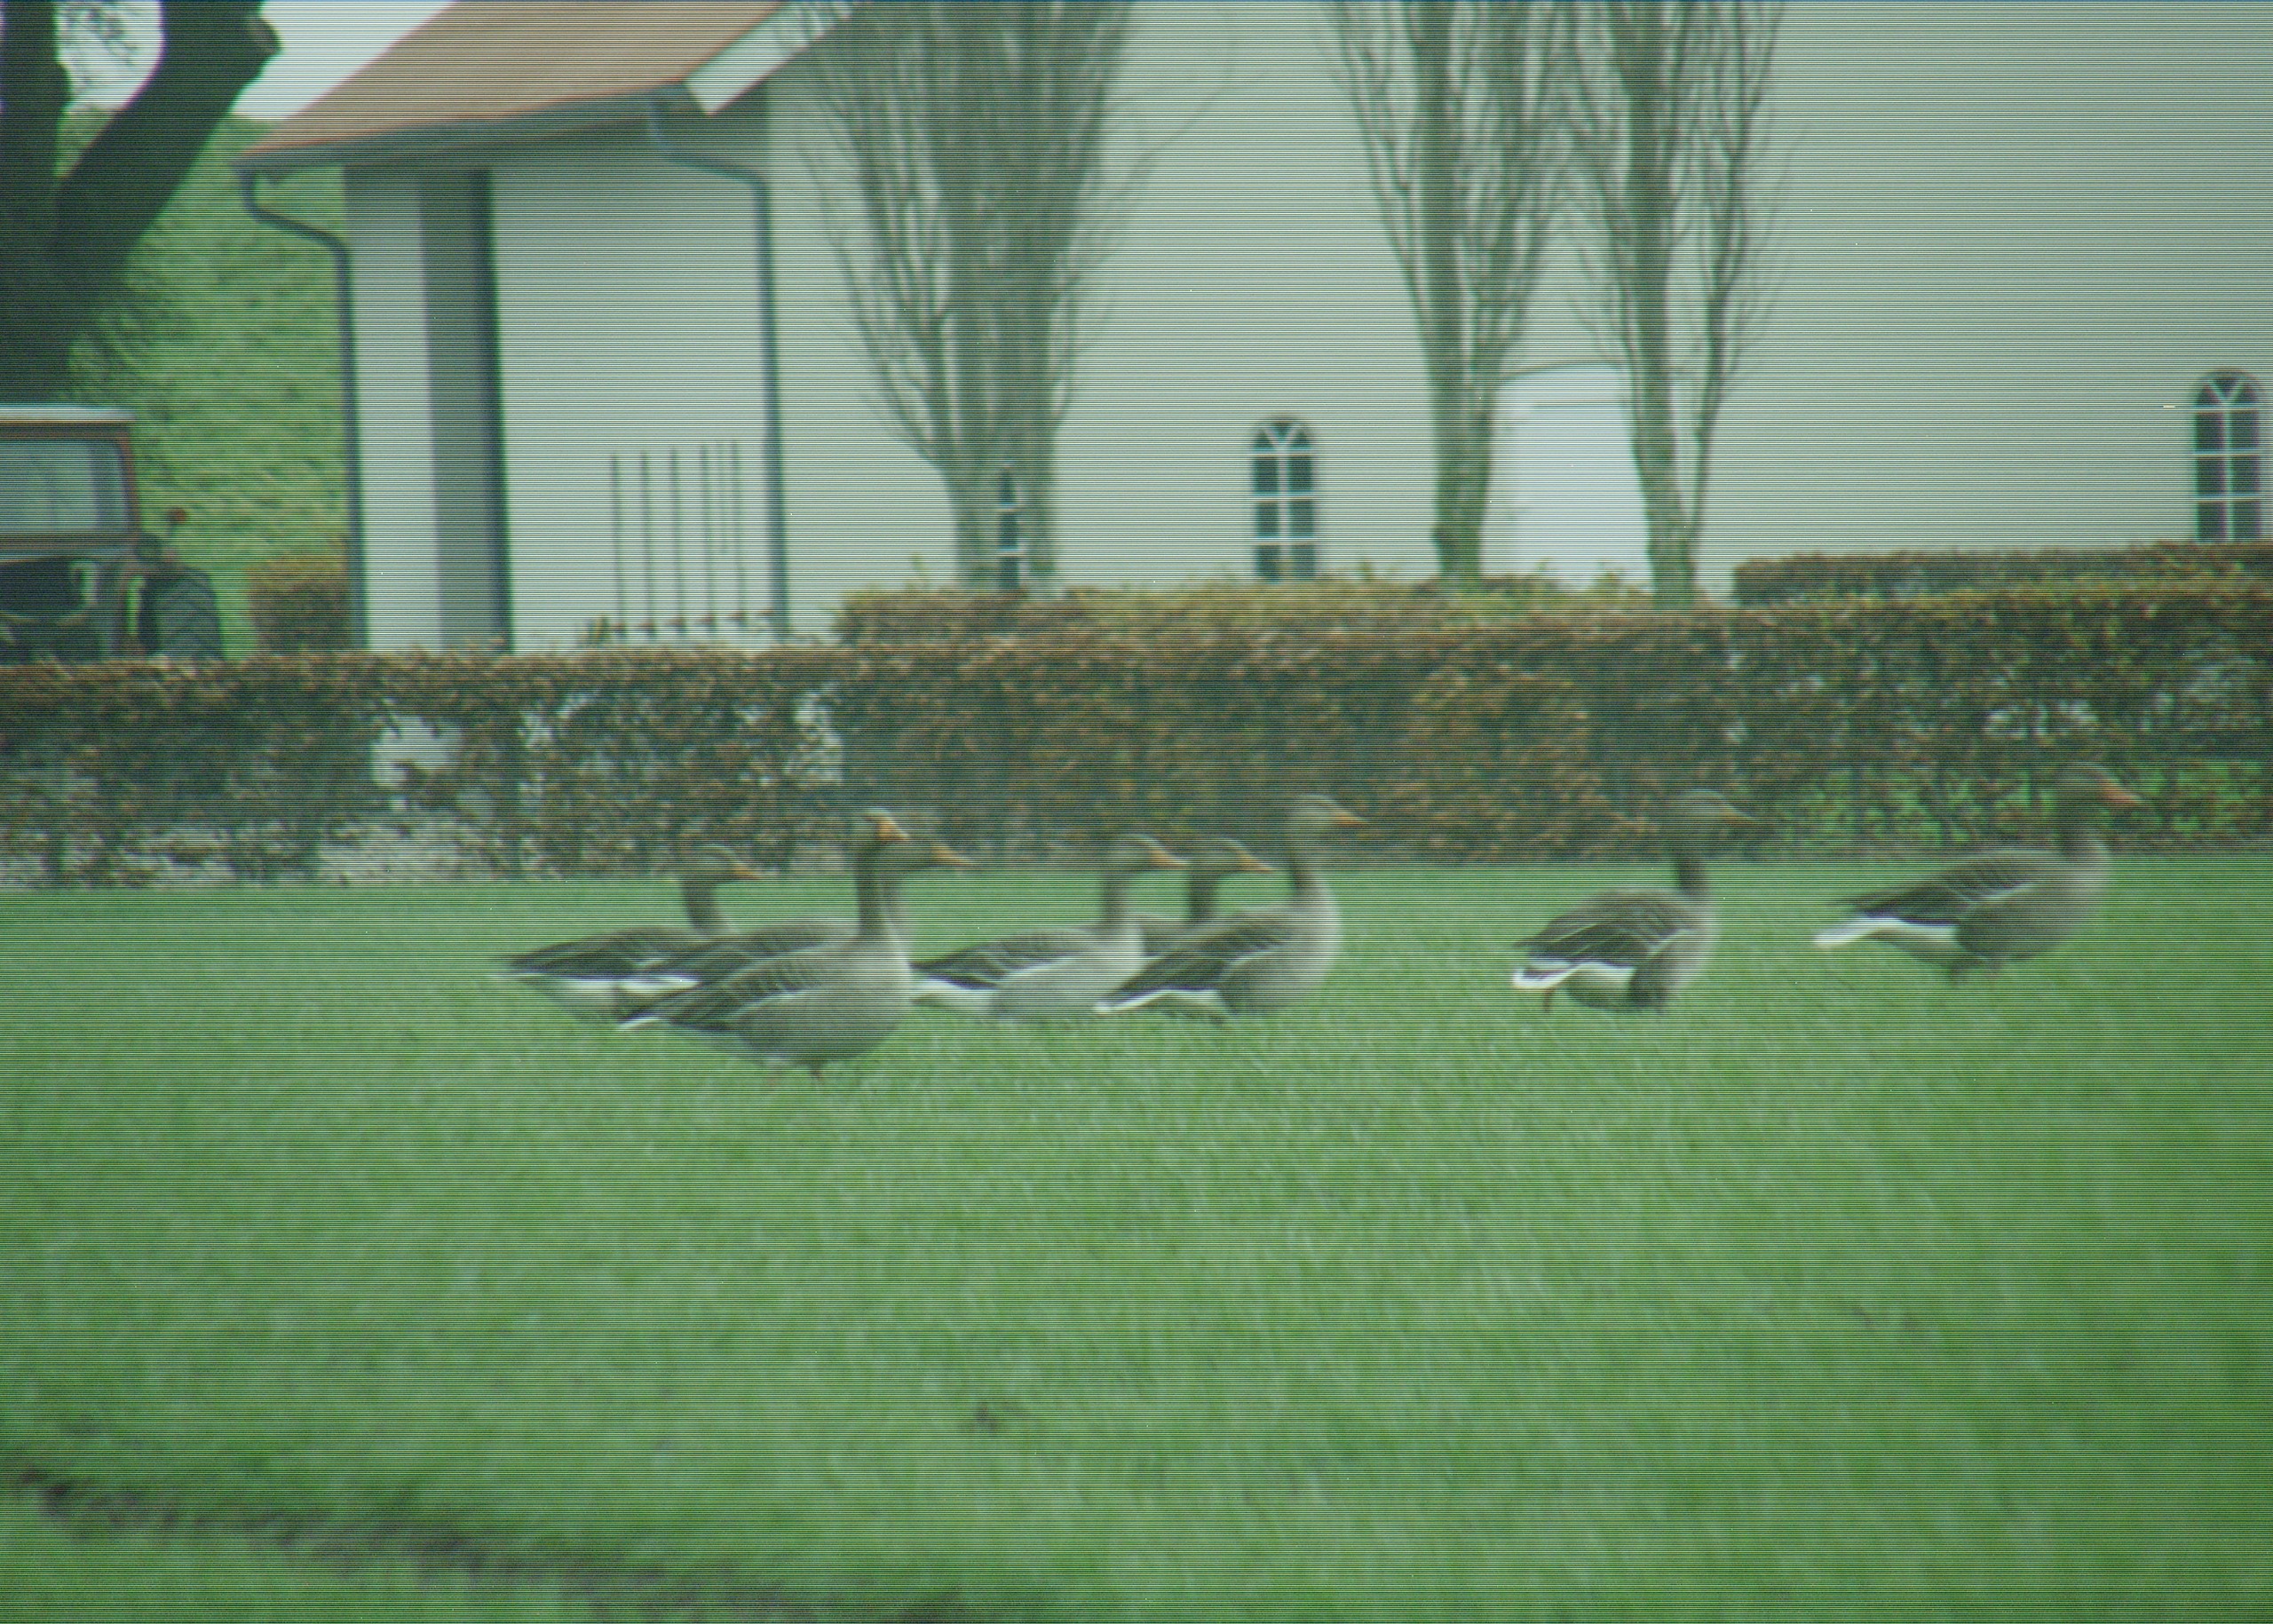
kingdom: Animalia
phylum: Chordata
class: Aves
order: Anseriformes
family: Anatidae
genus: Anser
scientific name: Anser anser
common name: Grågås
